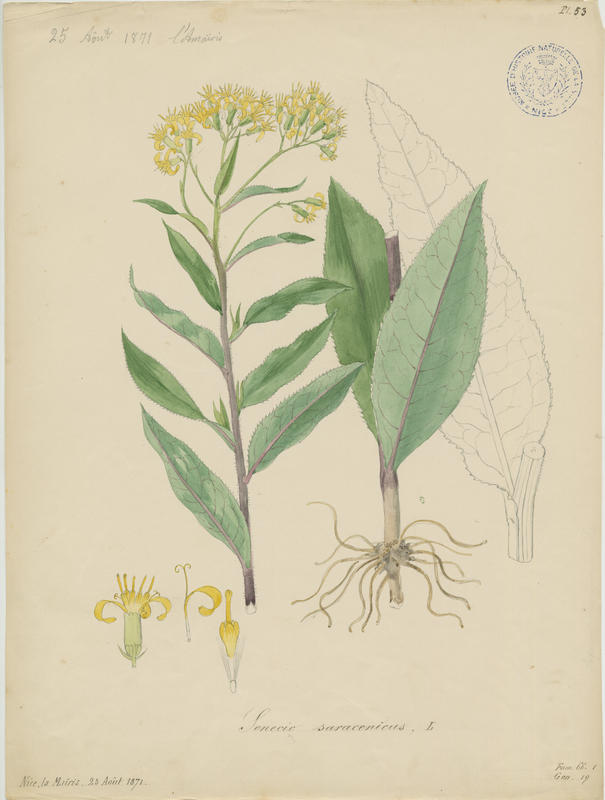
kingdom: Plantae
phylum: Tracheophyta
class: Magnoliopsida
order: Asterales
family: Asteraceae
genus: Senecio
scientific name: Senecio sarracenicus
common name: Broad-leaved ragwort
